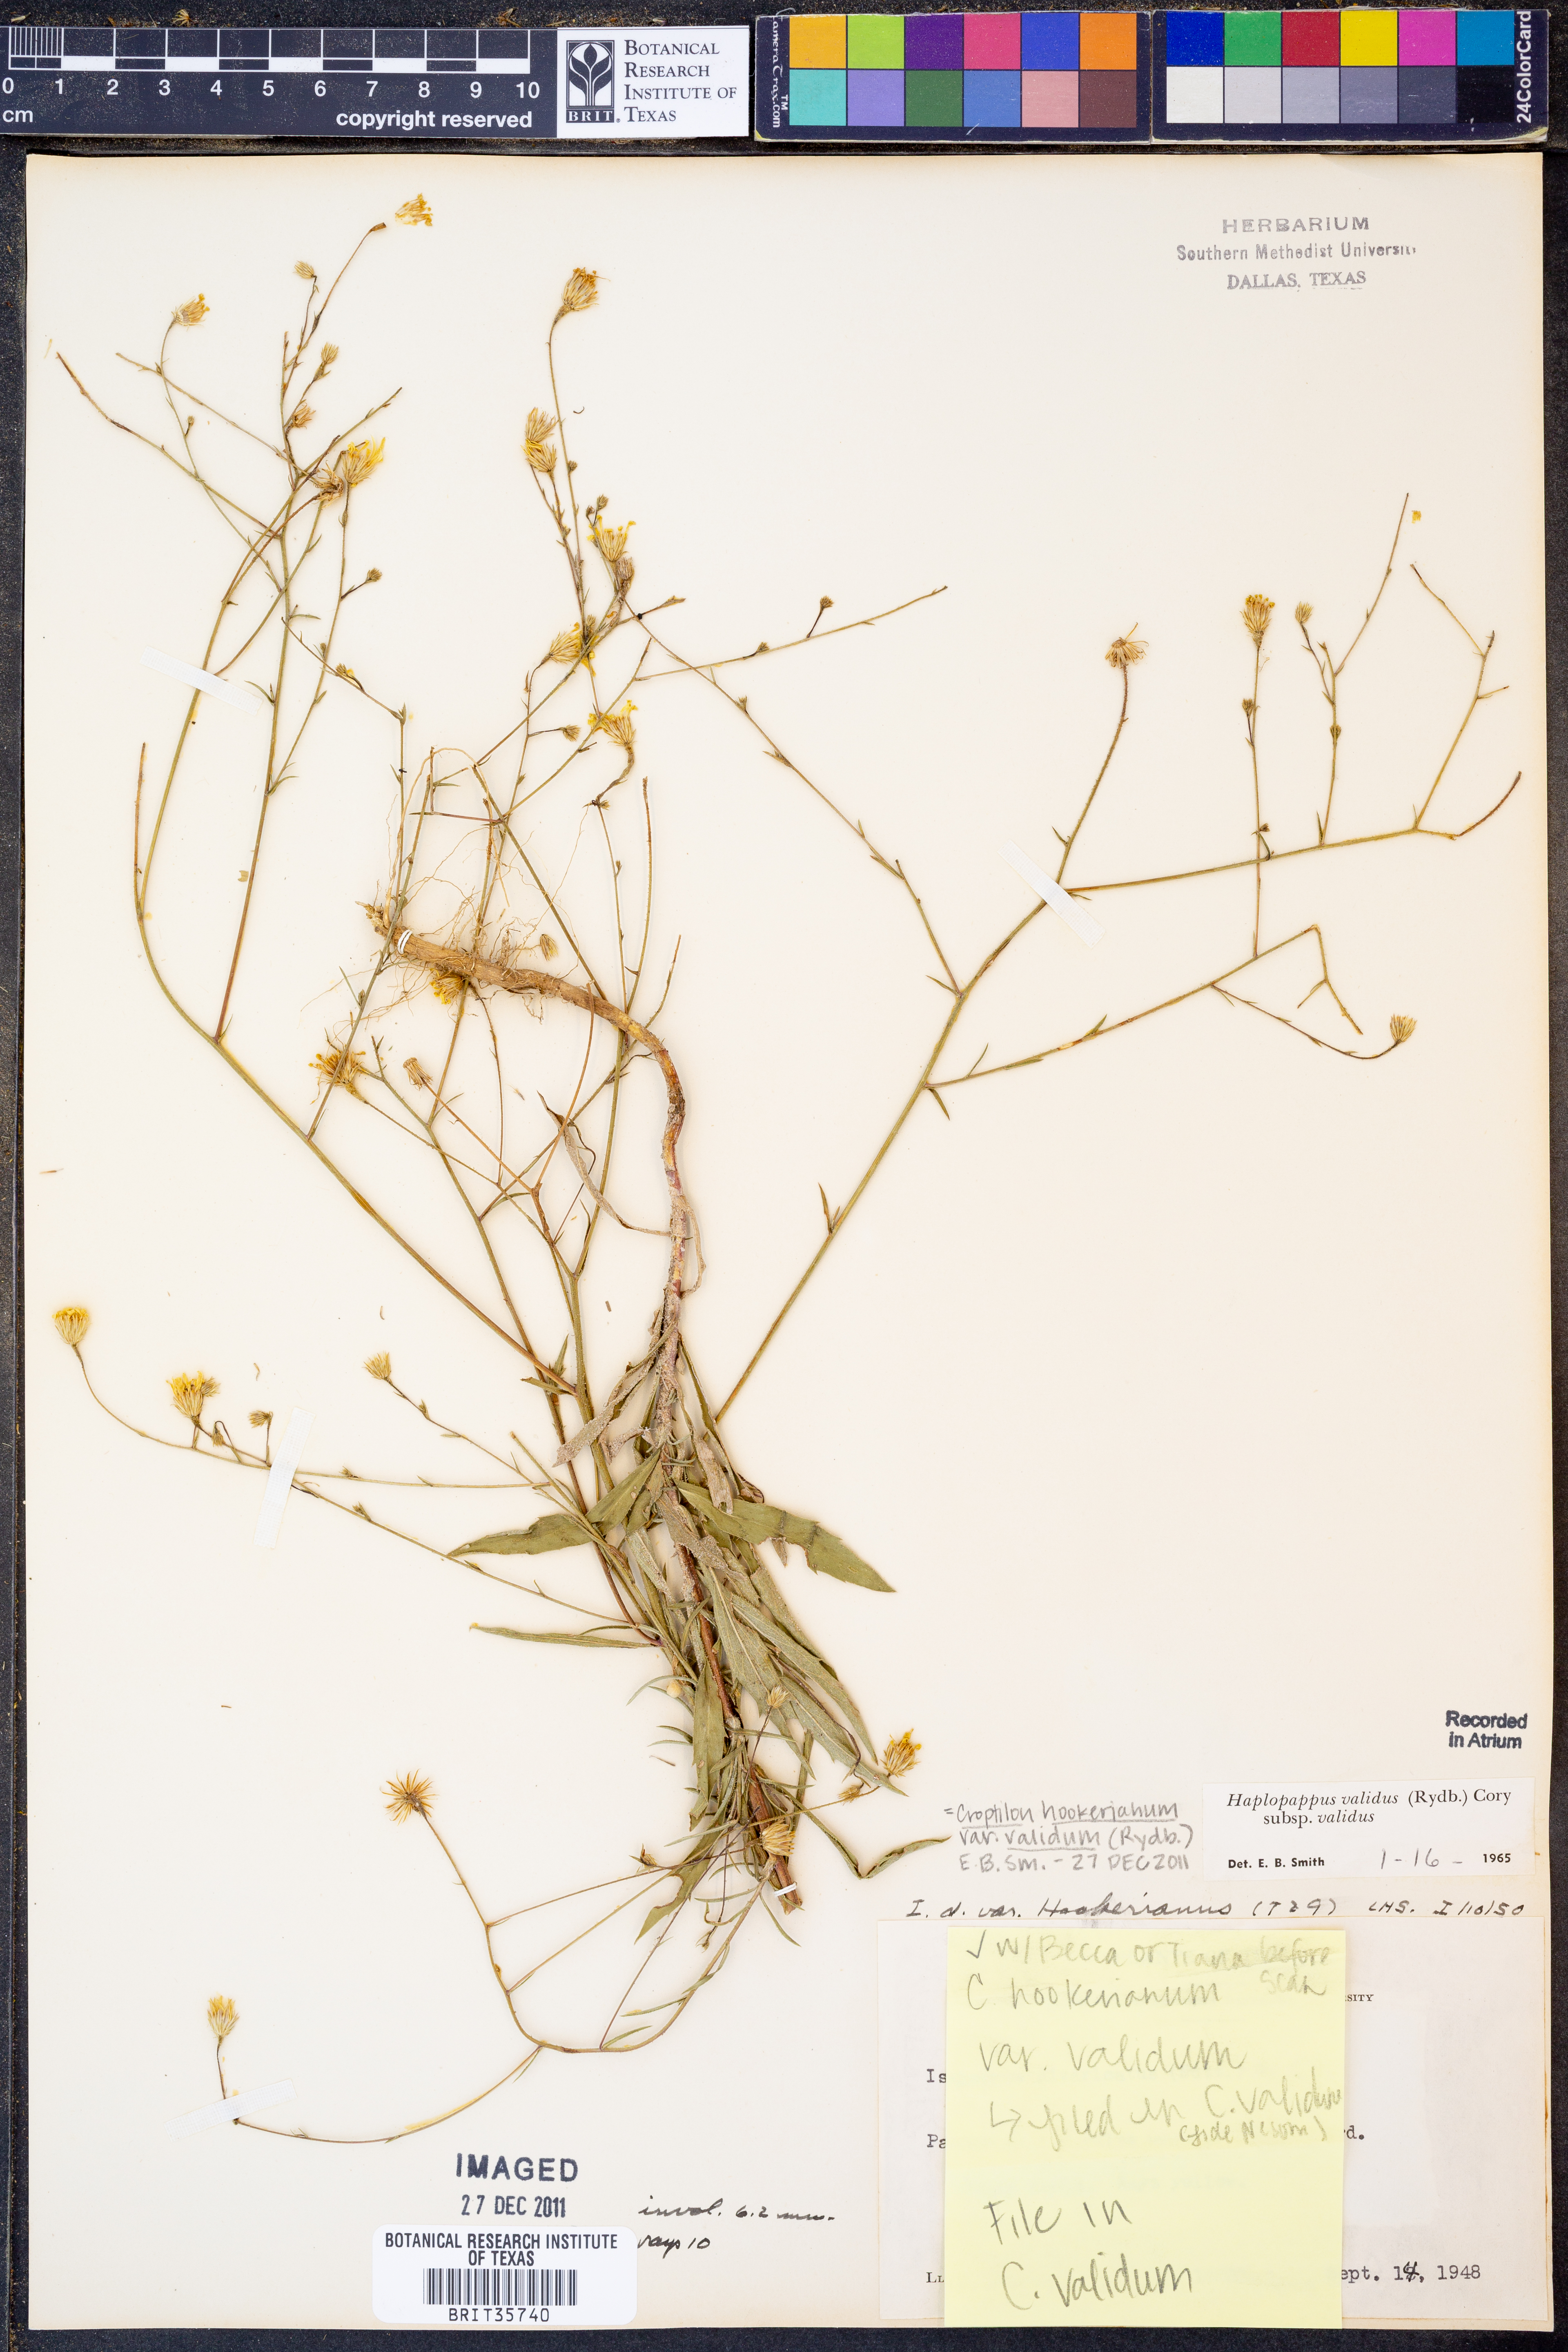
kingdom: Plantae
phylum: Tracheophyta
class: Magnoliopsida
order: Asterales
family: Asteraceae
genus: Croptilon
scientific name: Croptilon hookerianum
